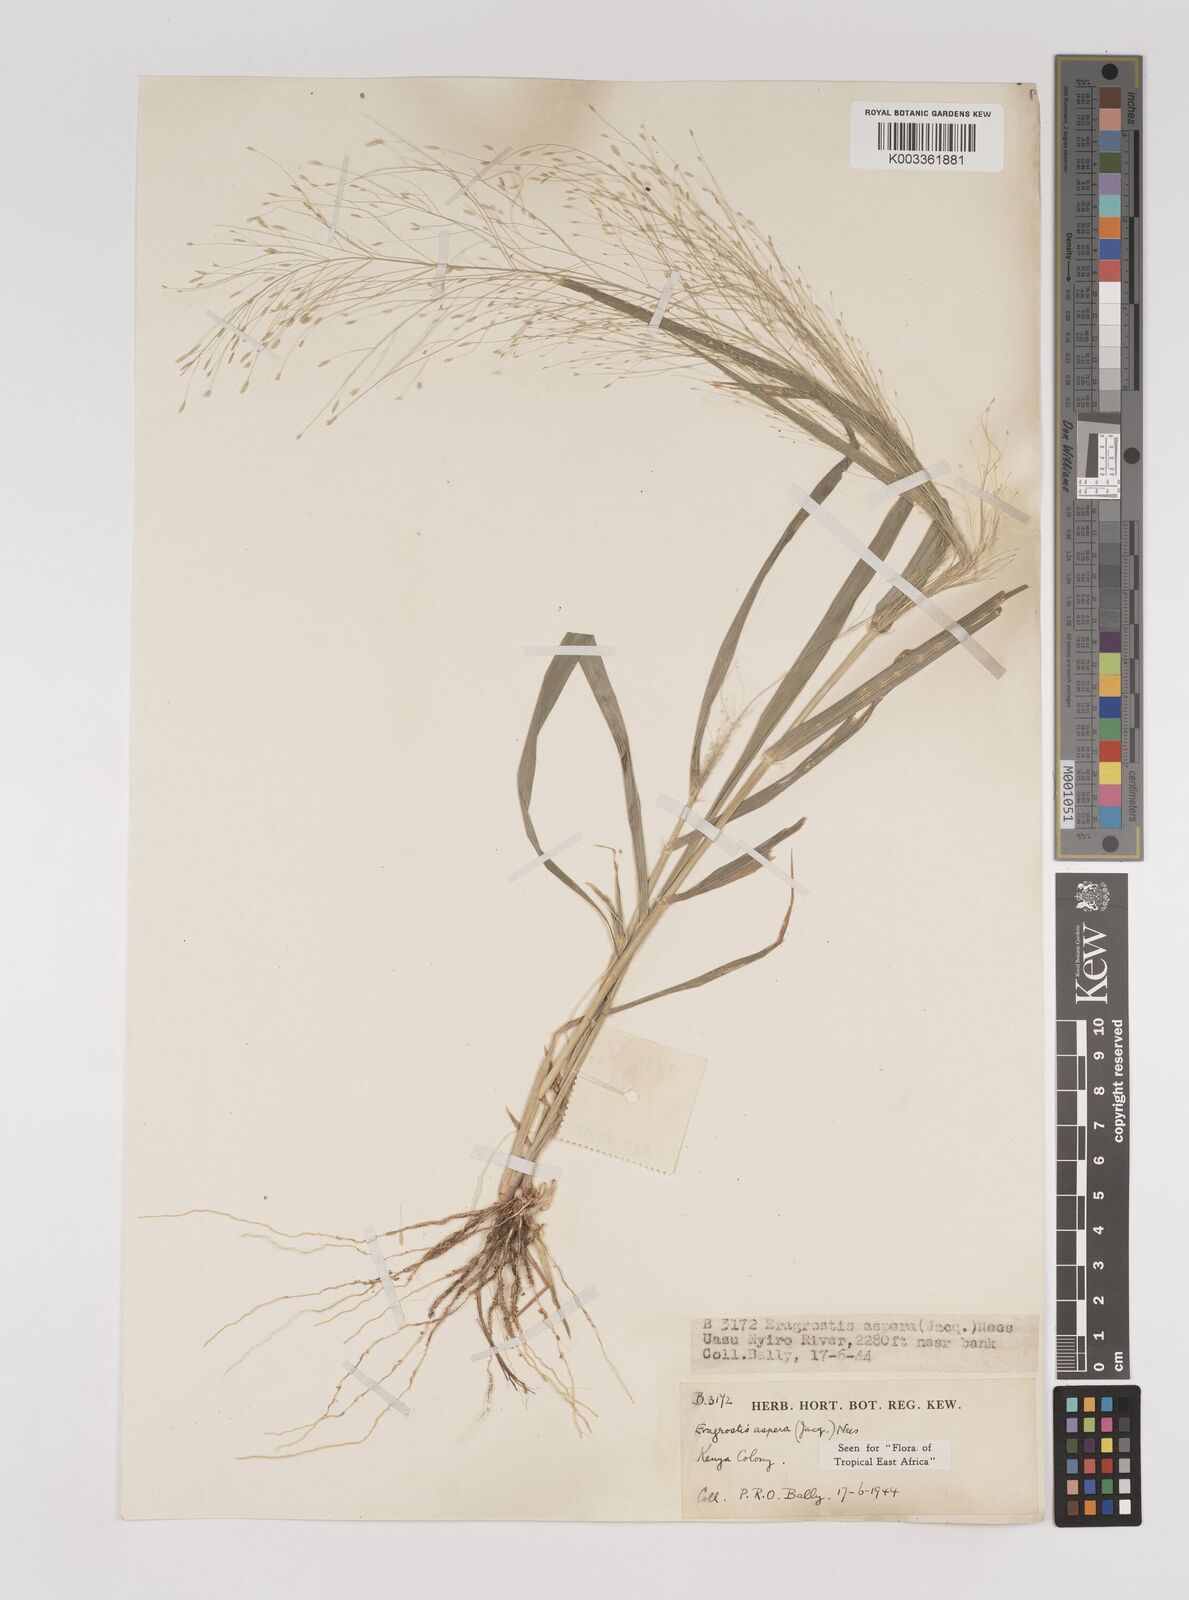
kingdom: Plantae
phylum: Tracheophyta
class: Liliopsida
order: Poales
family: Poaceae
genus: Eragrostis
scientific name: Eragrostis aspera
